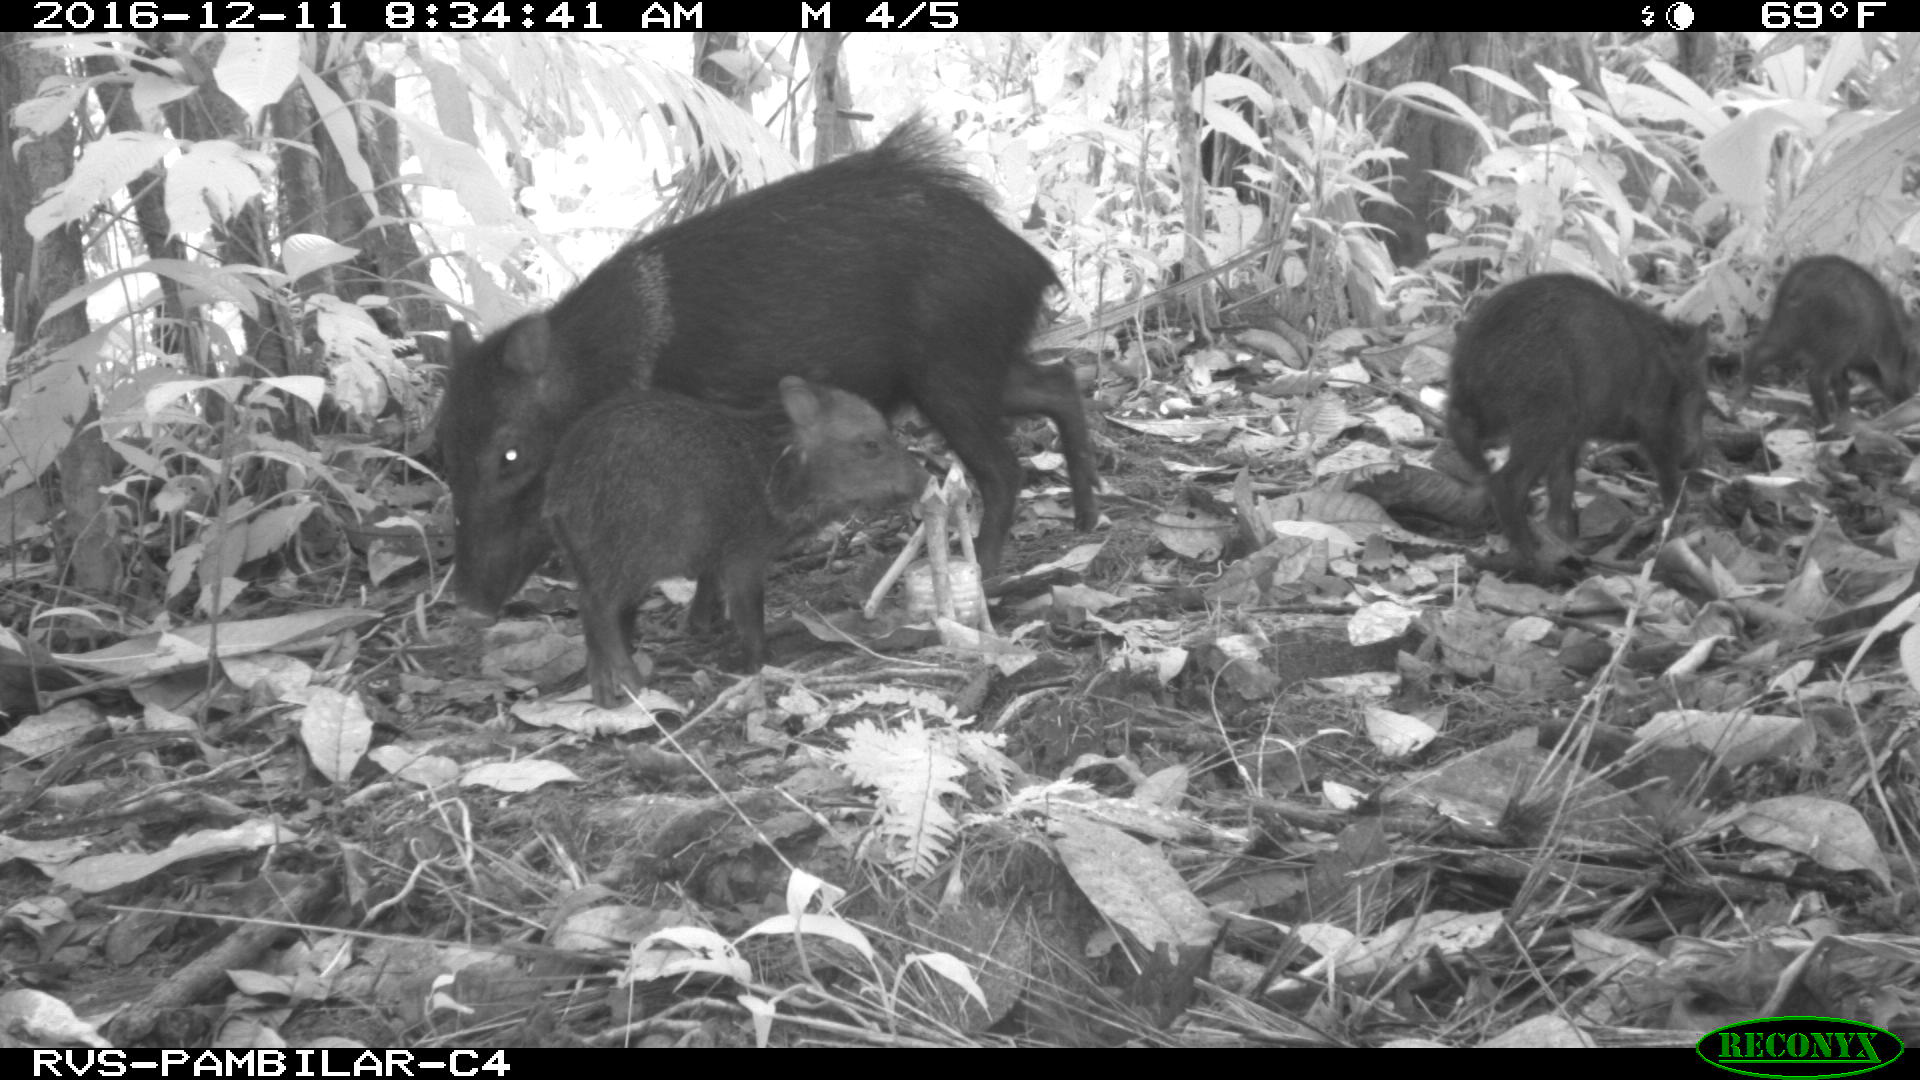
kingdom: Animalia
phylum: Chordata
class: Mammalia
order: Artiodactyla
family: Tayassuidae
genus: Pecari
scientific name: Pecari tajacu
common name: Collared peccary
